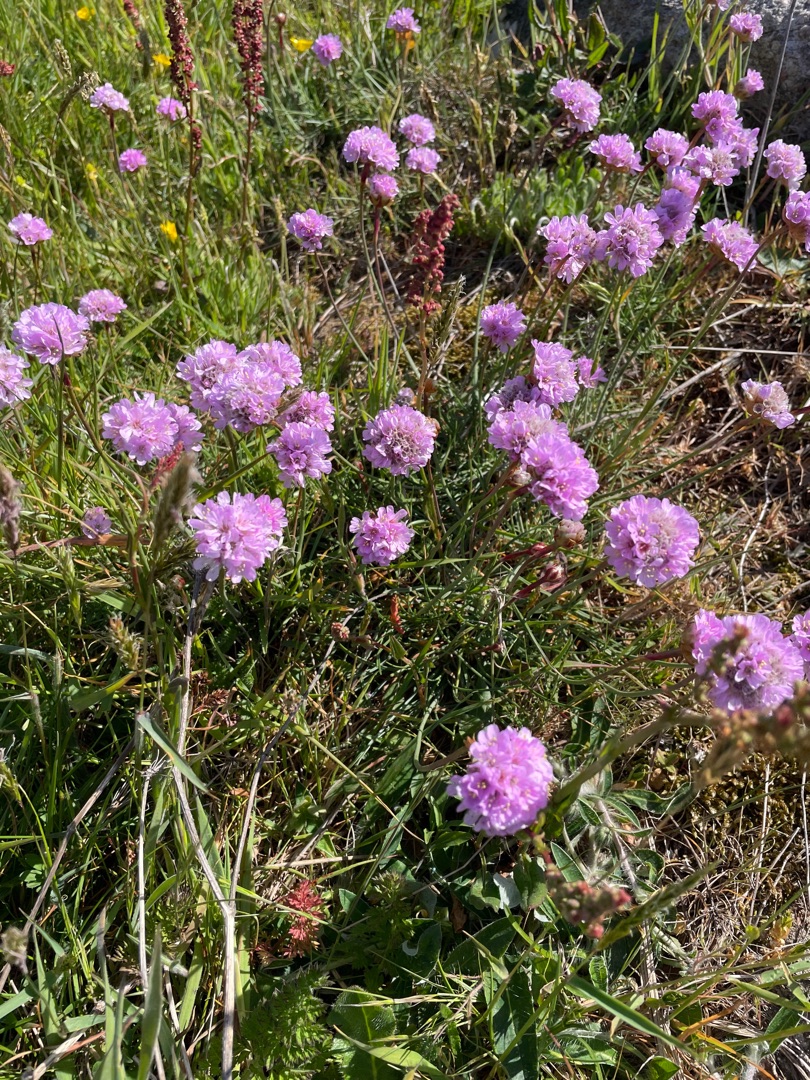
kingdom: Plantae
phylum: Tracheophyta
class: Magnoliopsida
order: Caryophyllales
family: Plumbaginaceae
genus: Armeria
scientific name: Armeria maritima
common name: Engelskgræs
